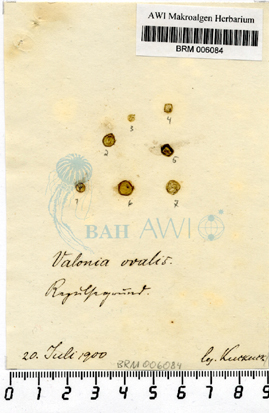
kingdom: Plantae
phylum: Chlorophyta
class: Ulvophyceae
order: Bryopsidales
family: Derbesiaceae
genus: Derbesia
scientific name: Derbesia marina
